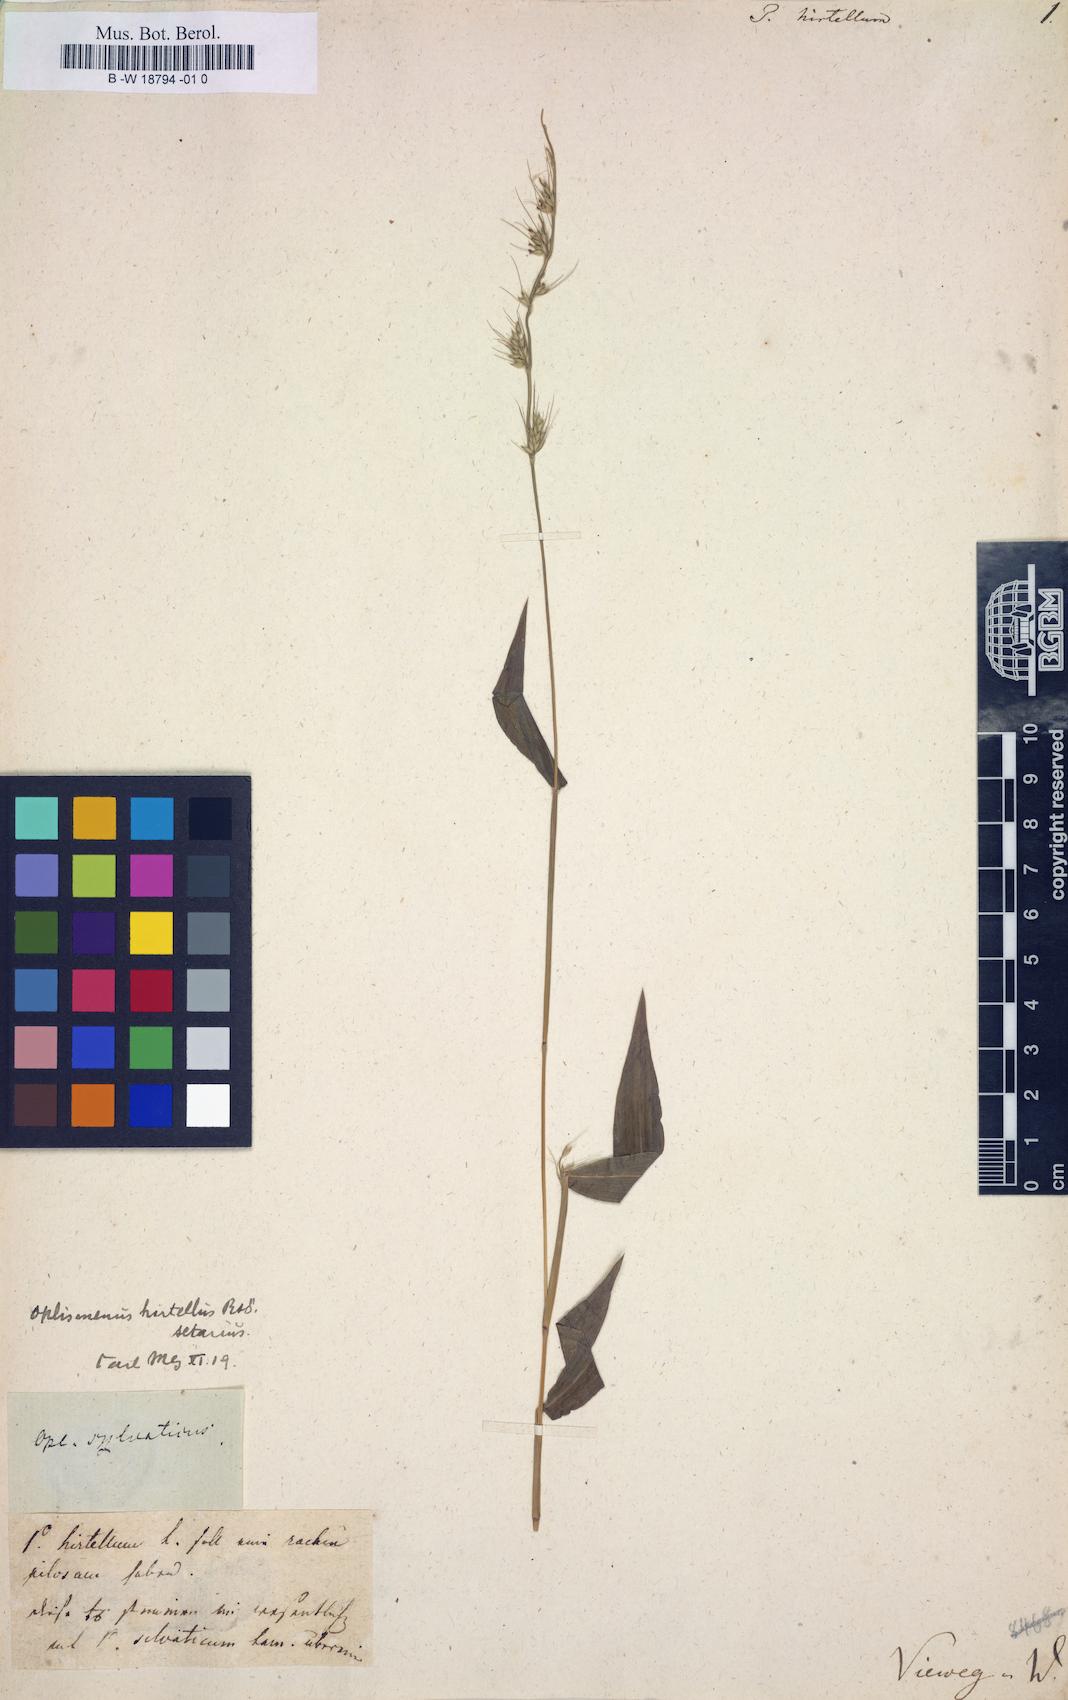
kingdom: Plantae
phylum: Tracheophyta
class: Liliopsida
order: Poales
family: Poaceae
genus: Panicum
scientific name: Panicum hirtellum
